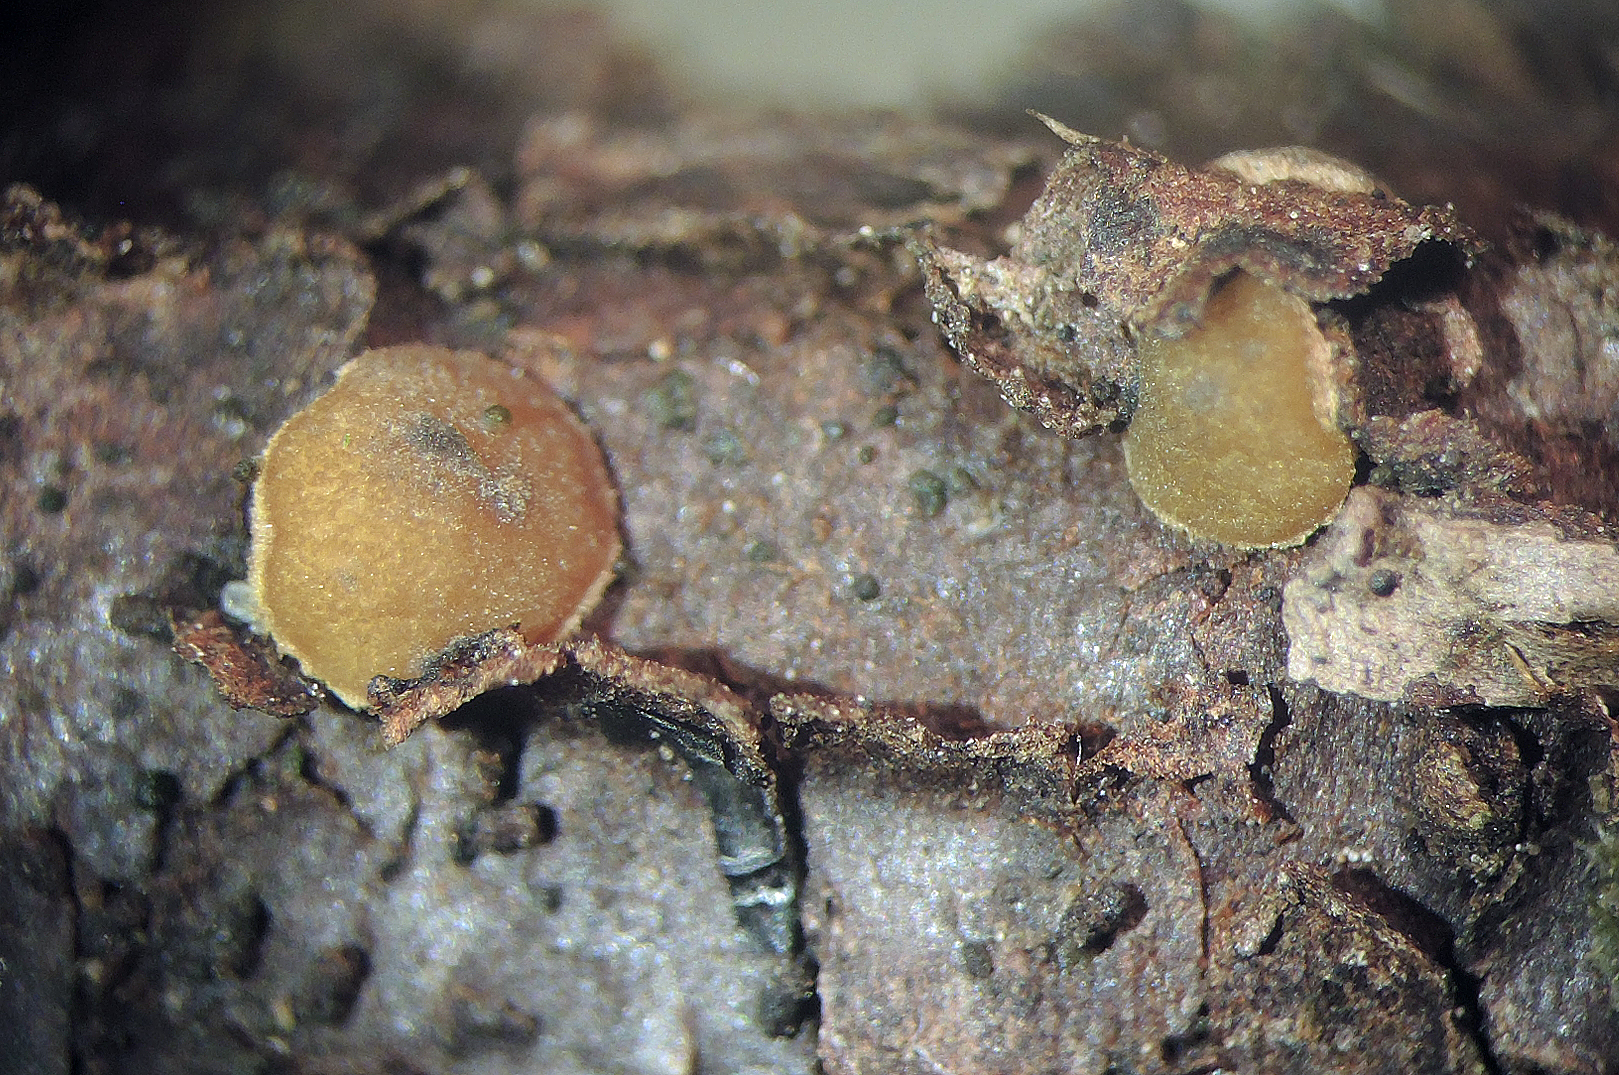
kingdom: Fungi
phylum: Ascomycota
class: Leotiomycetes
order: Helotiales
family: Cenangiaceae
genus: Velutarina
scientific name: Velutarina rufo-olivacea
